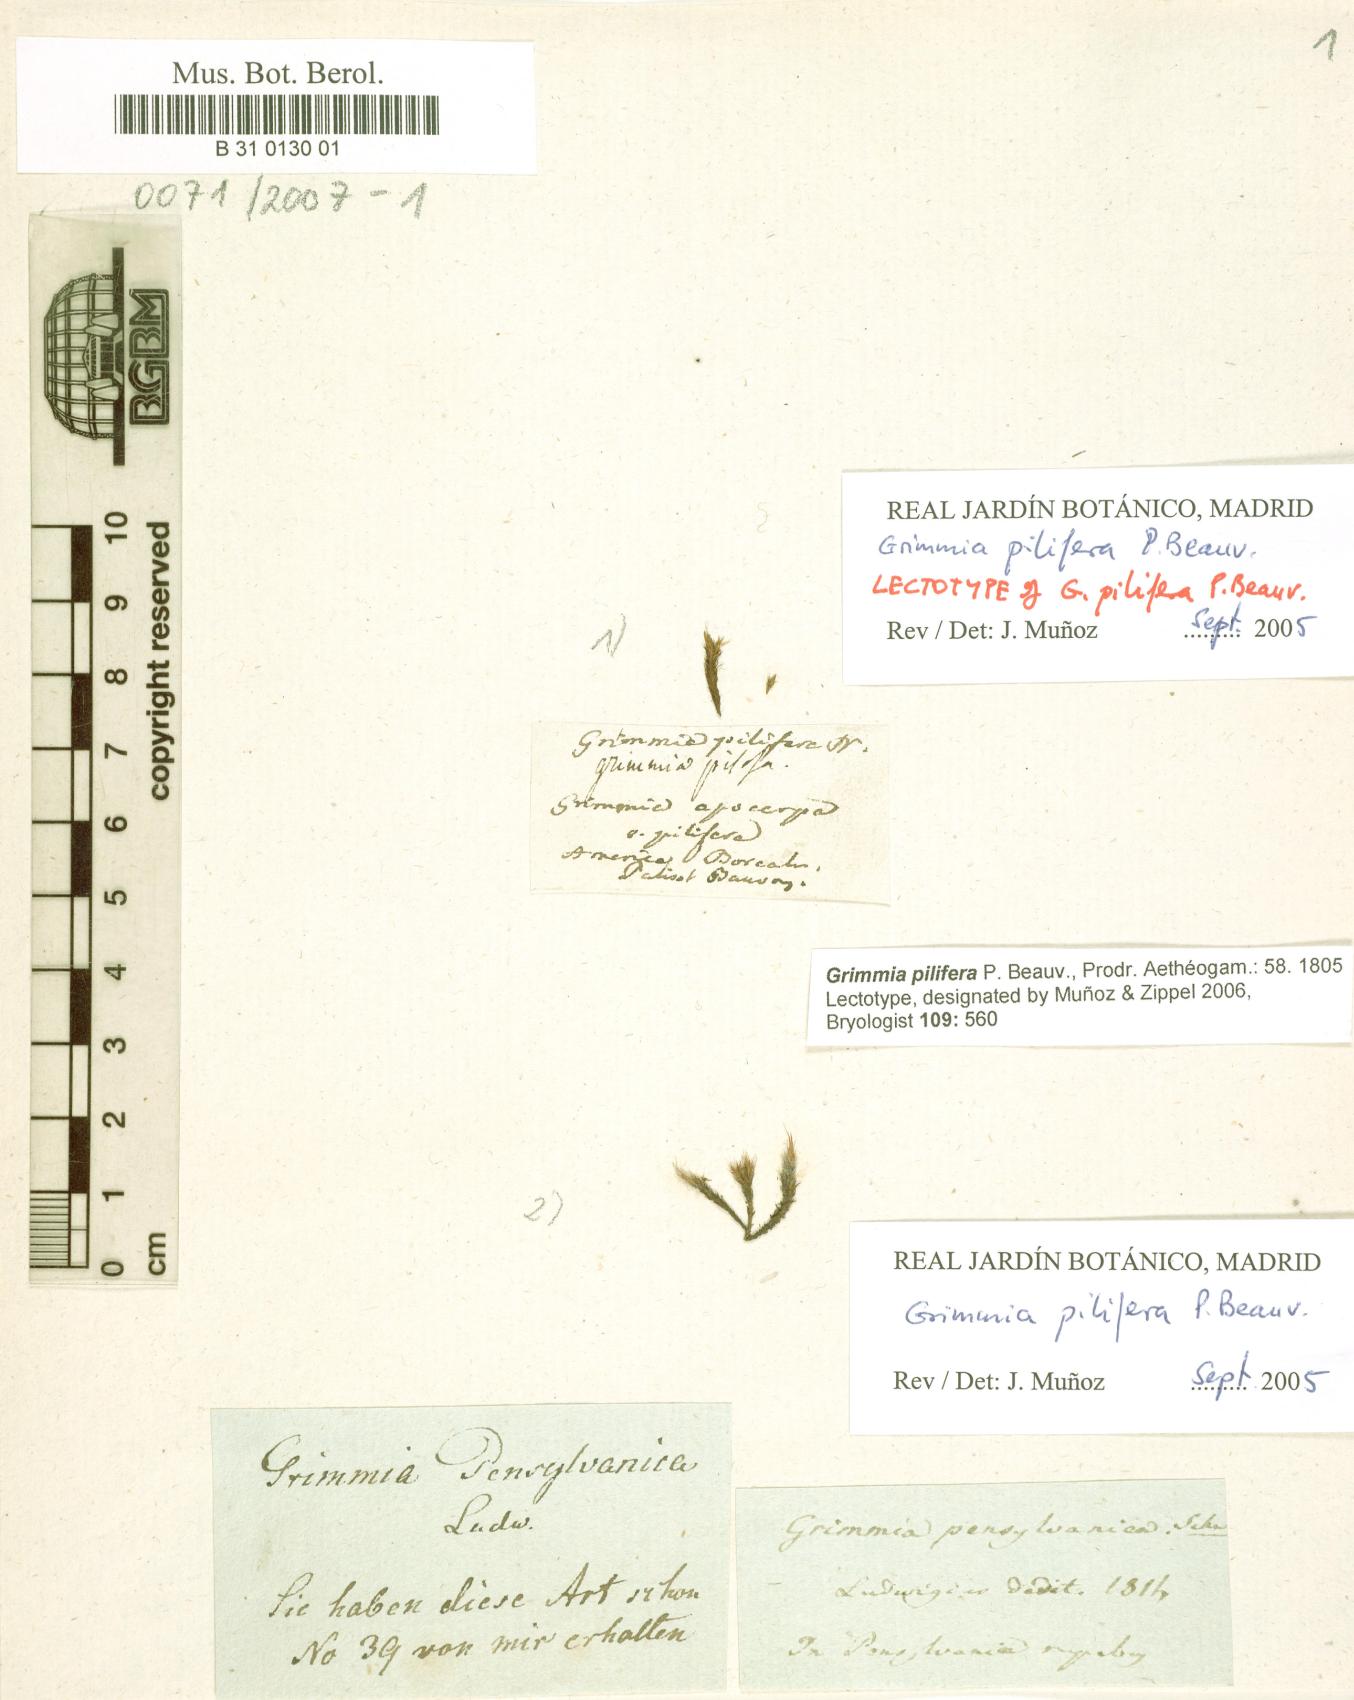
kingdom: Plantae
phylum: Bryophyta
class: Bryopsida
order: Grimmiales
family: Grimmiaceae
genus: Grimmia
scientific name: Grimmia pilifera
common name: Hair grimmia
